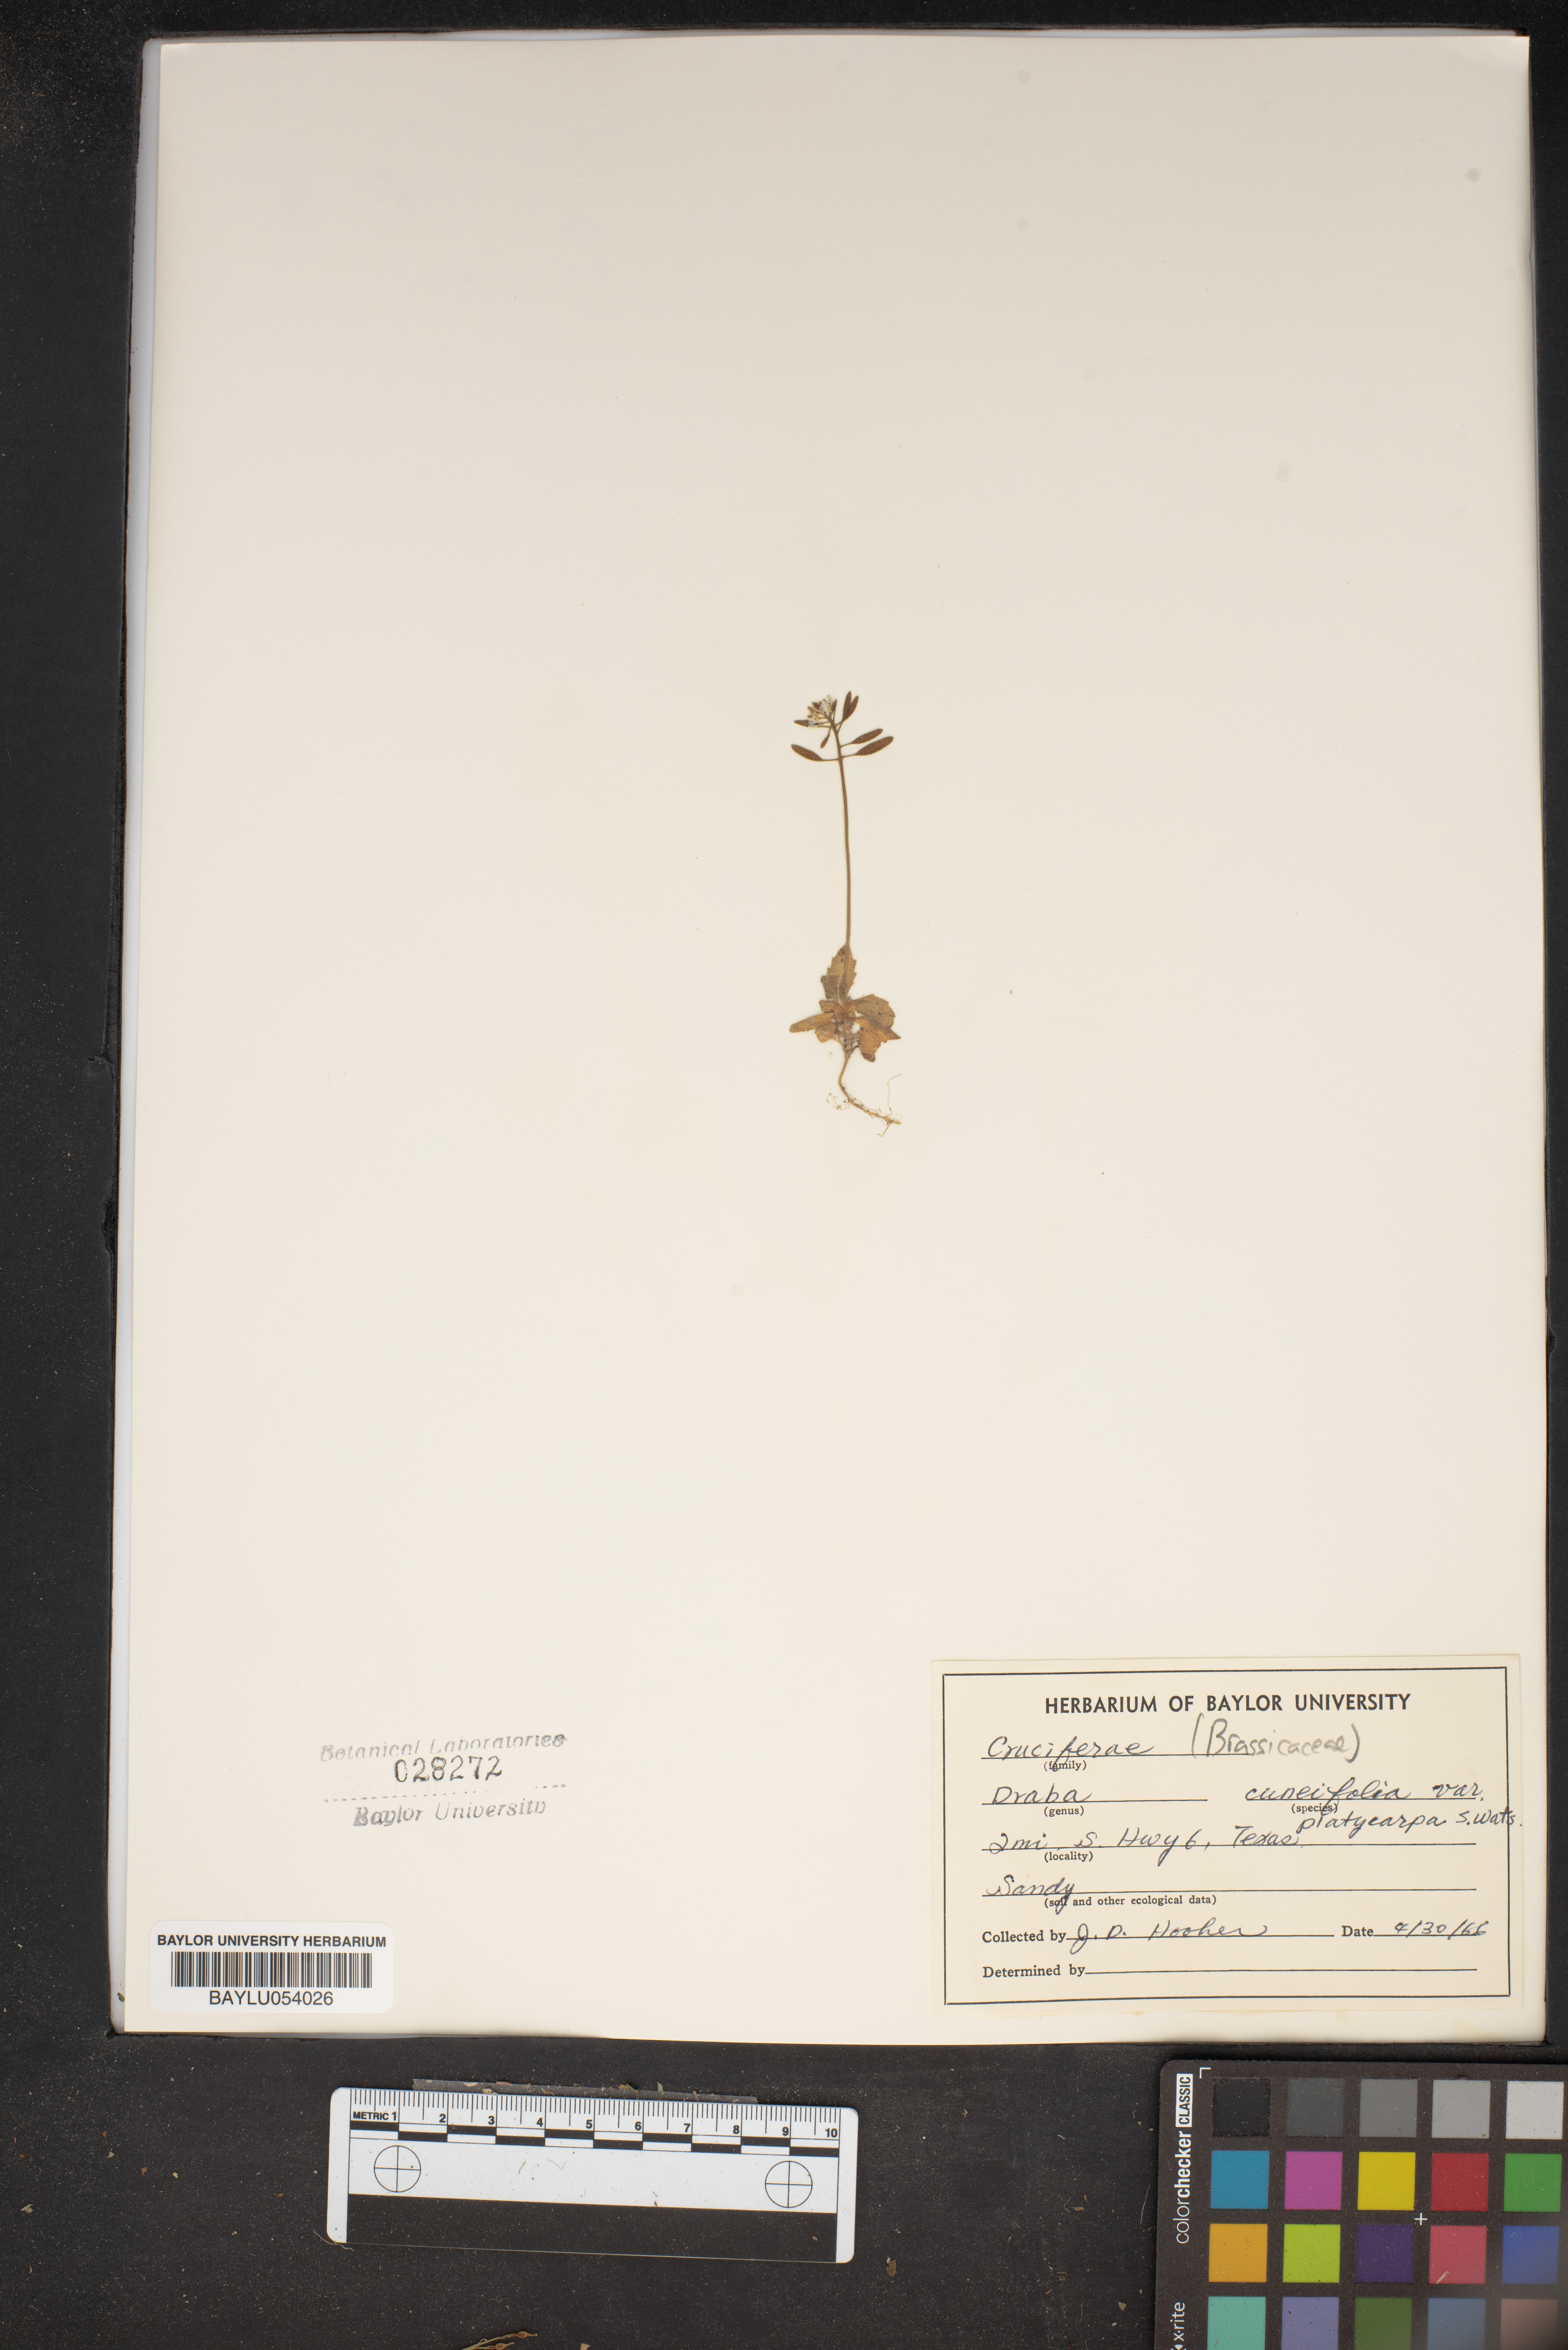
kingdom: Plantae
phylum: Tracheophyta
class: Magnoliopsida
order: Brassicales
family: Brassicaceae
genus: Tomostima
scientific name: Tomostima cuneifolia
